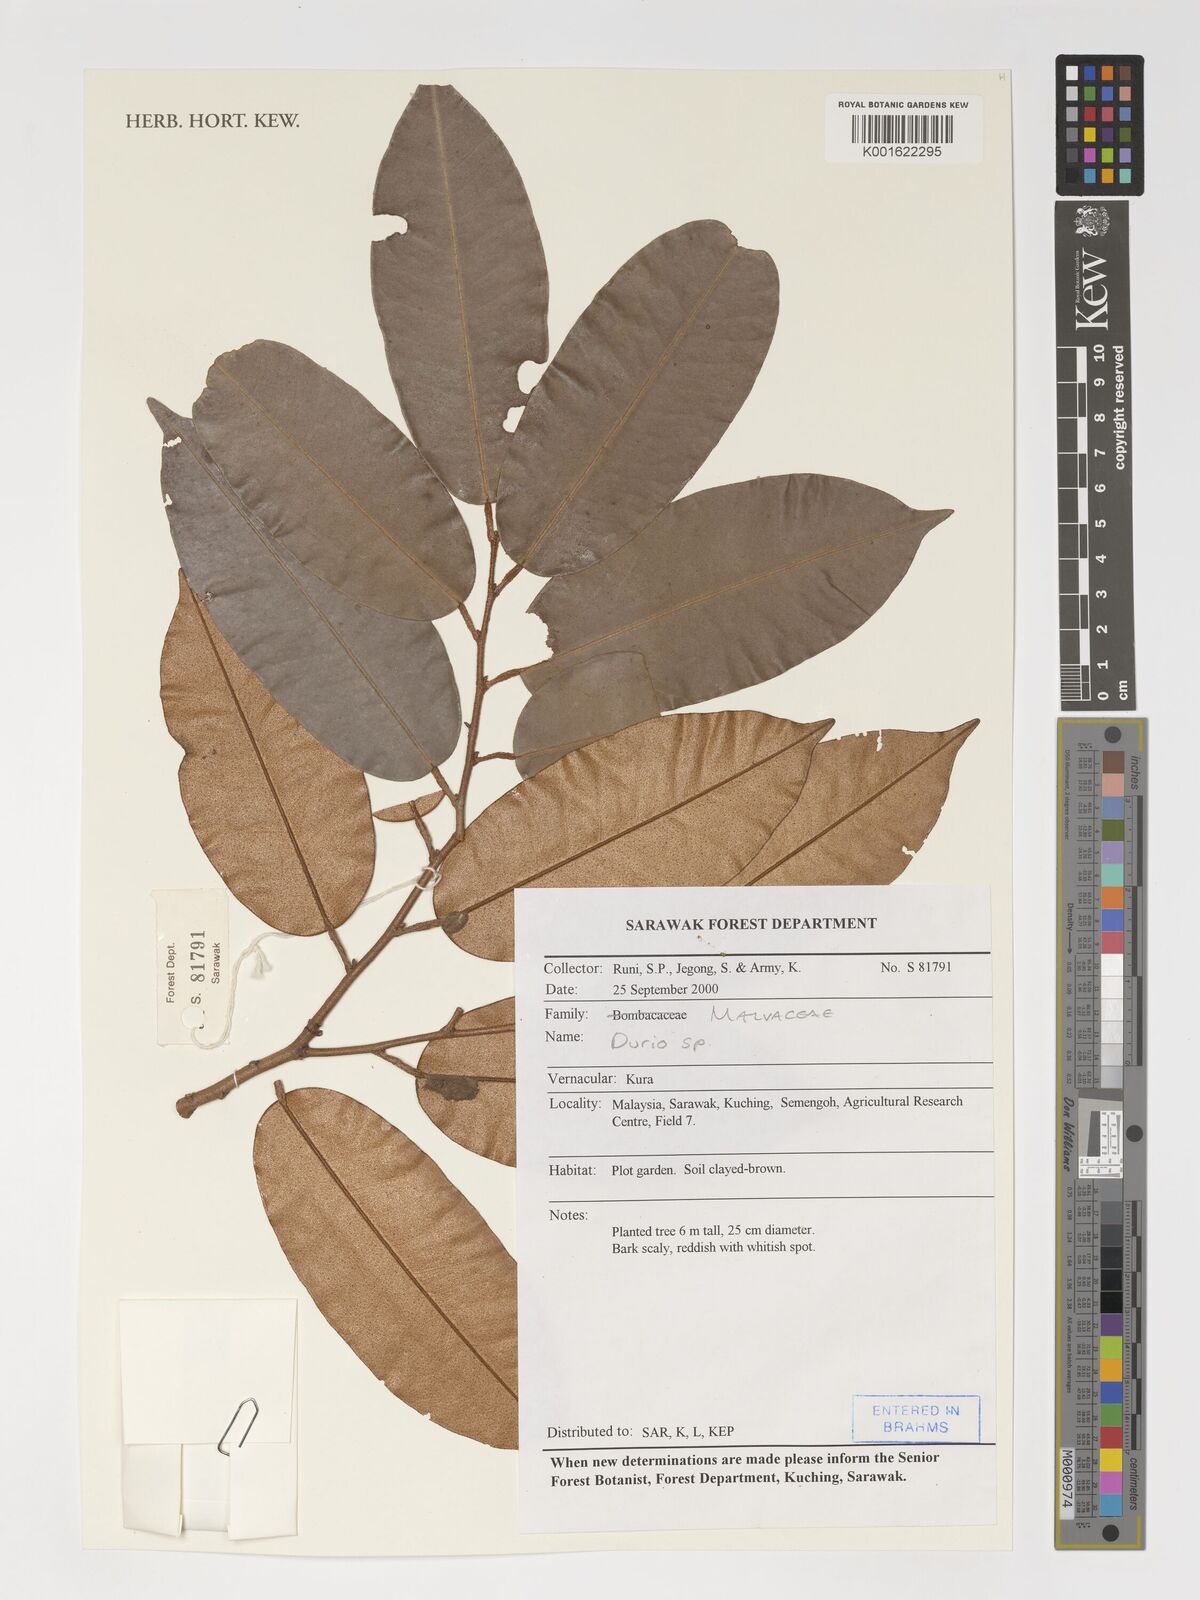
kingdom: Plantae
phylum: Tracheophyta
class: Magnoliopsida
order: Malvales
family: Malvaceae
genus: Durio
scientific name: Durio
